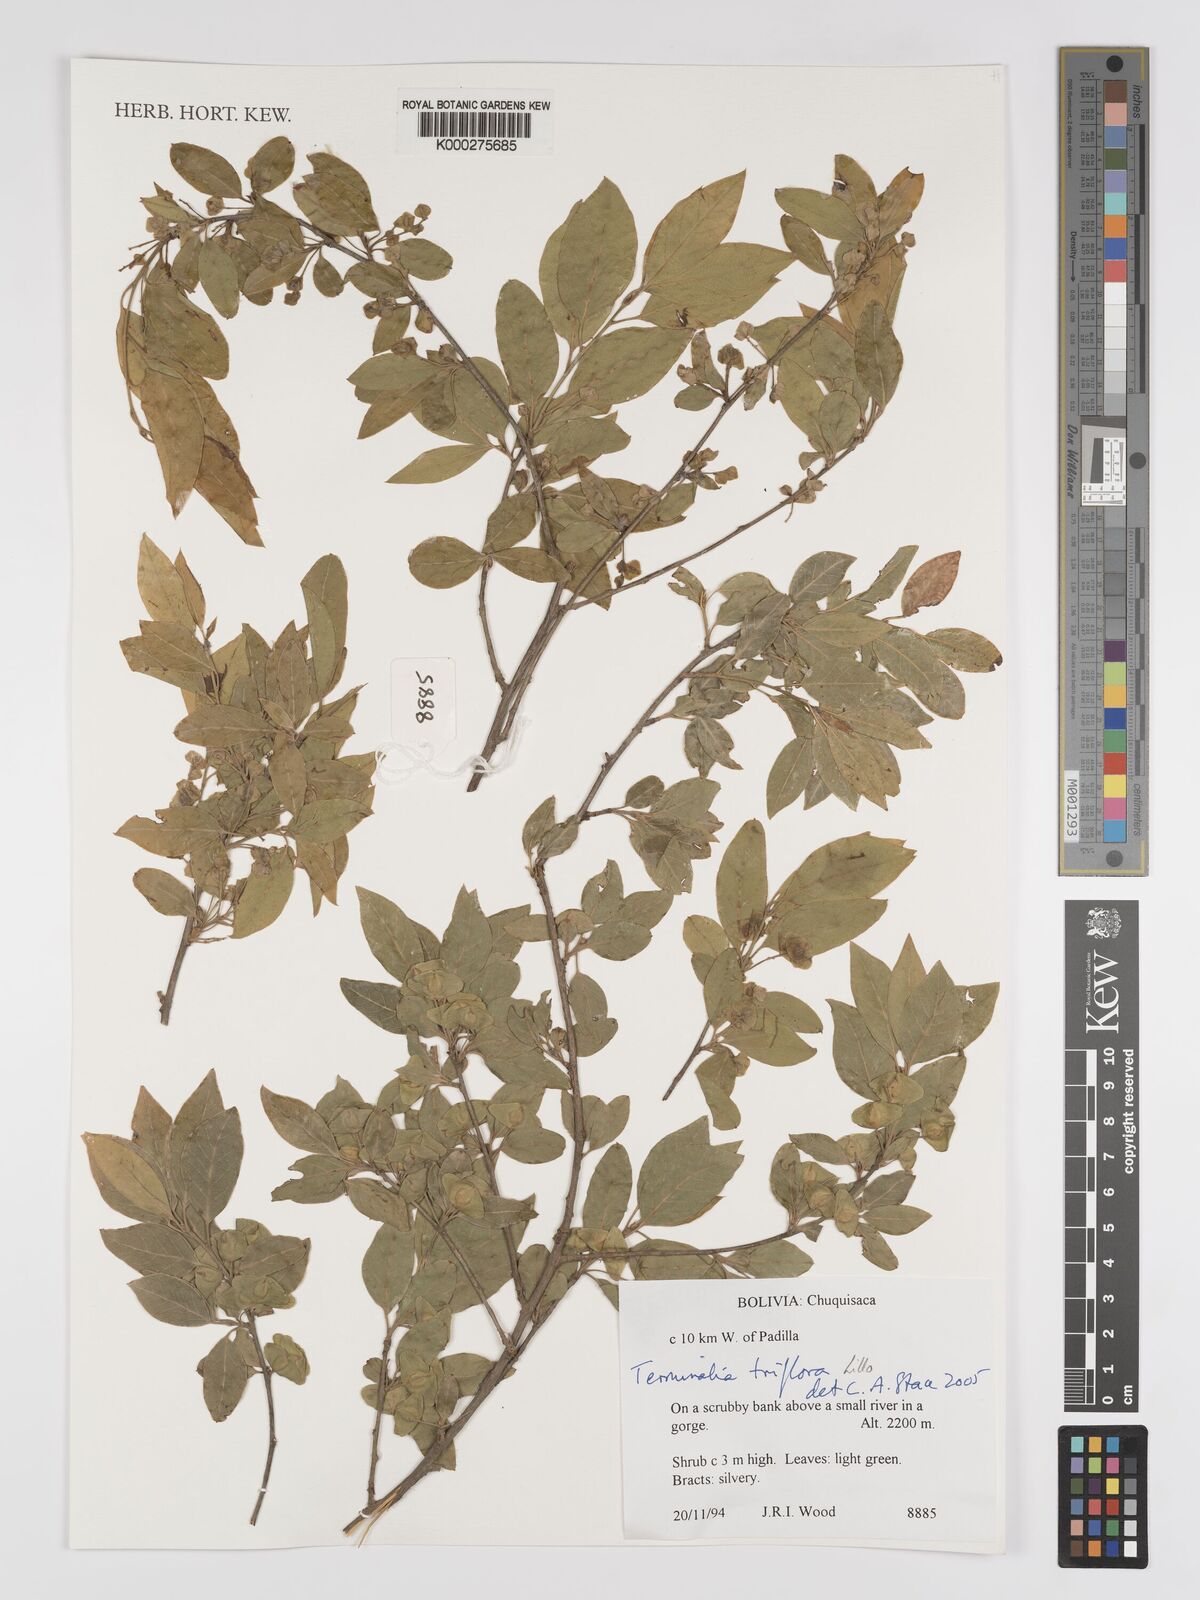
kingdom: Plantae
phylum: Tracheophyta
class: Magnoliopsida
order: Myrtales
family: Combretaceae
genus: Terminalia
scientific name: Terminalia triflora
